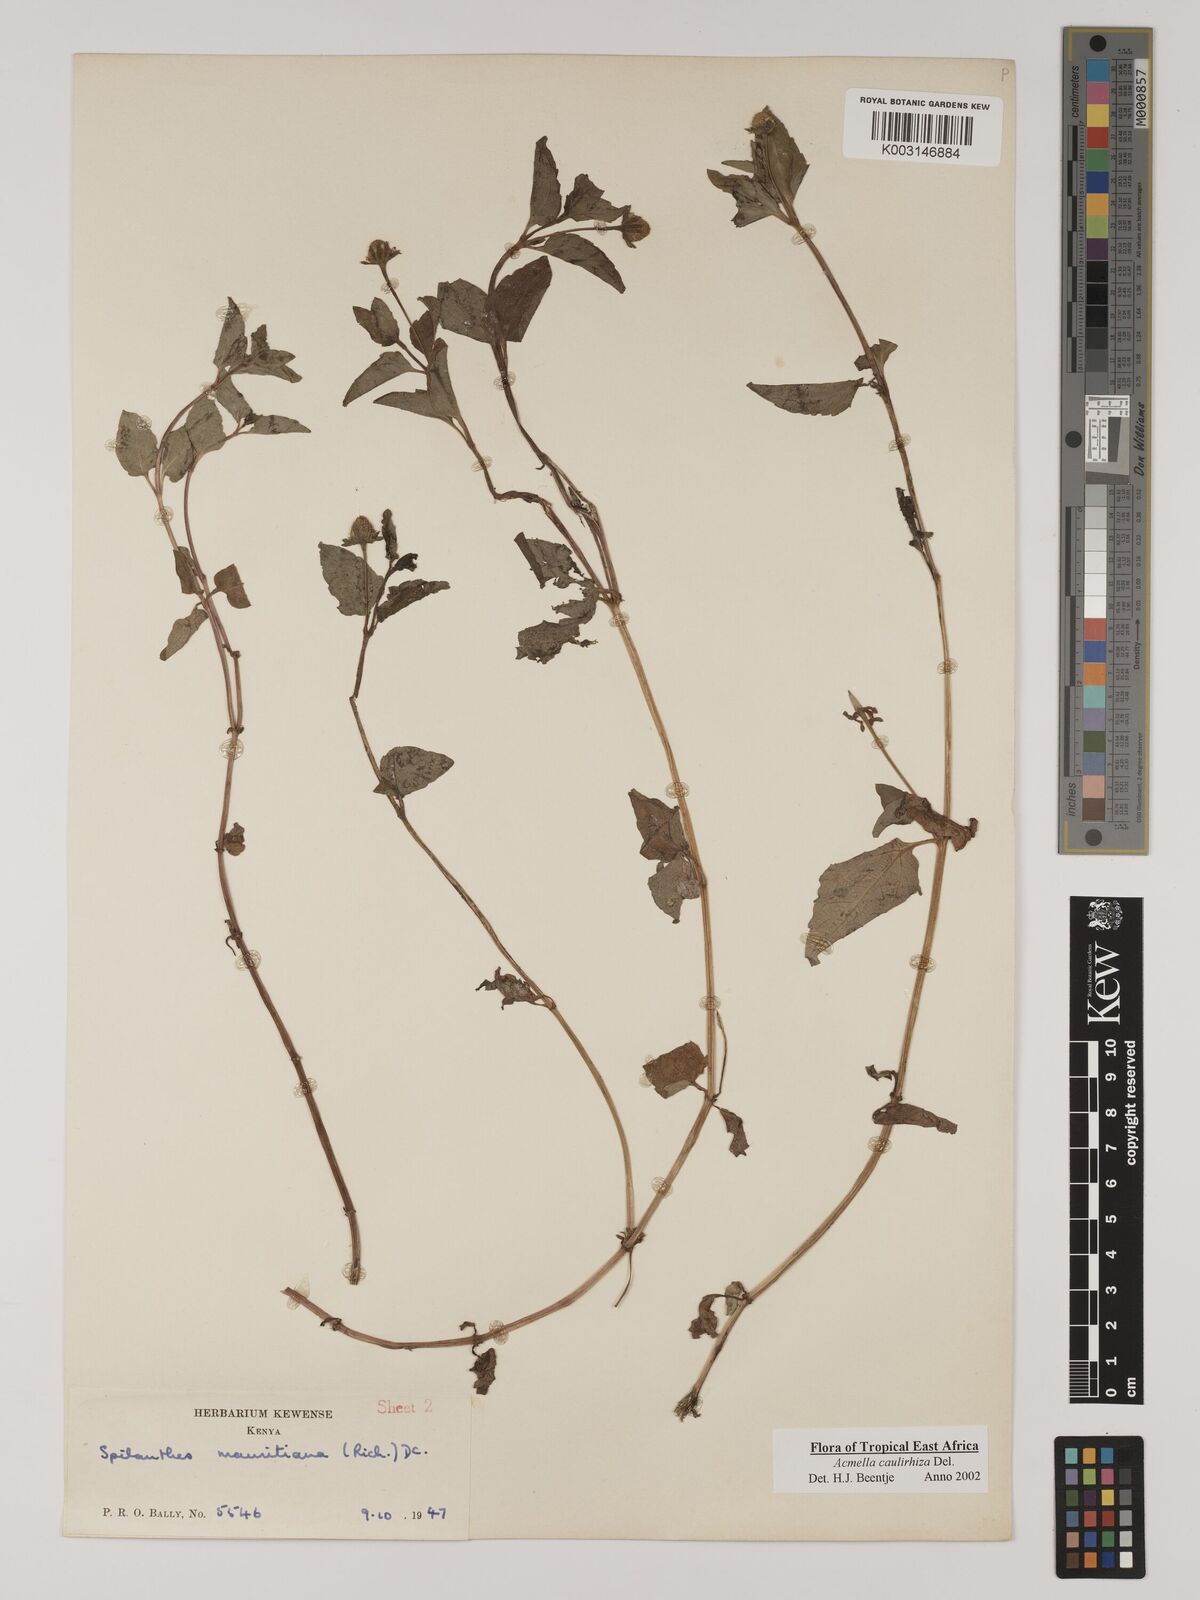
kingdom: Plantae
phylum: Tracheophyta
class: Magnoliopsida
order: Asterales
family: Asteraceae
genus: Acmella
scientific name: Acmella caulirhiza
